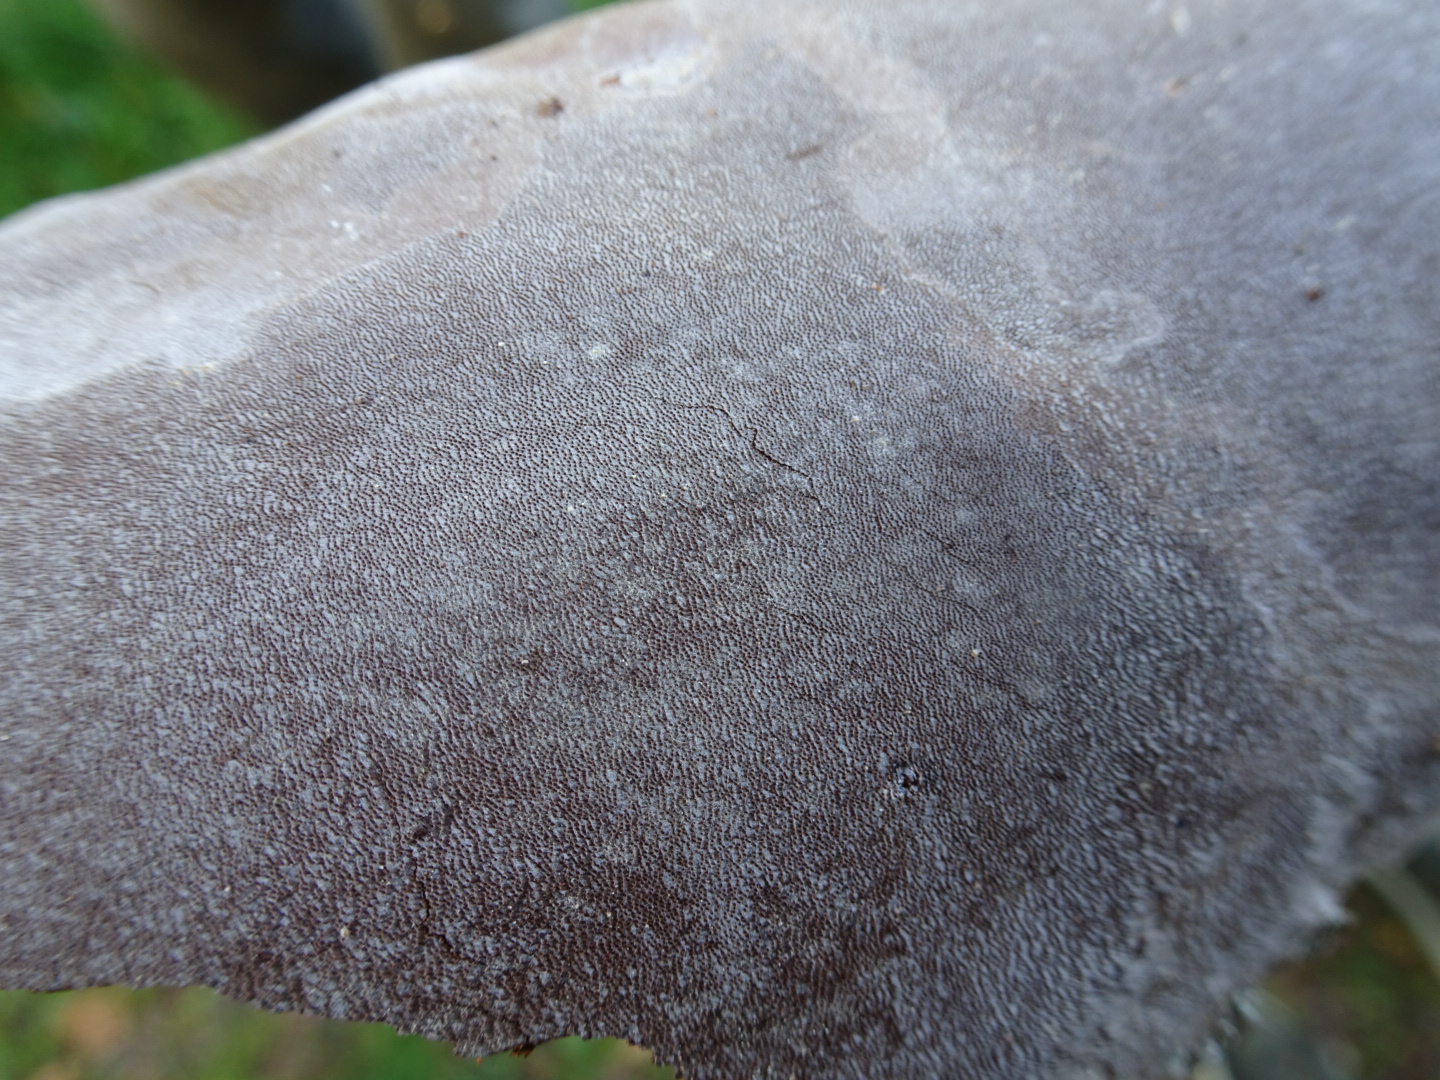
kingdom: Fungi
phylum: Basidiomycota
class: Agaricomycetes
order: Hymenochaetales
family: Hymenochaetaceae
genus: Fomitiporia
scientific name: Fomitiporia punctata
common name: pude-ildporesvamp
